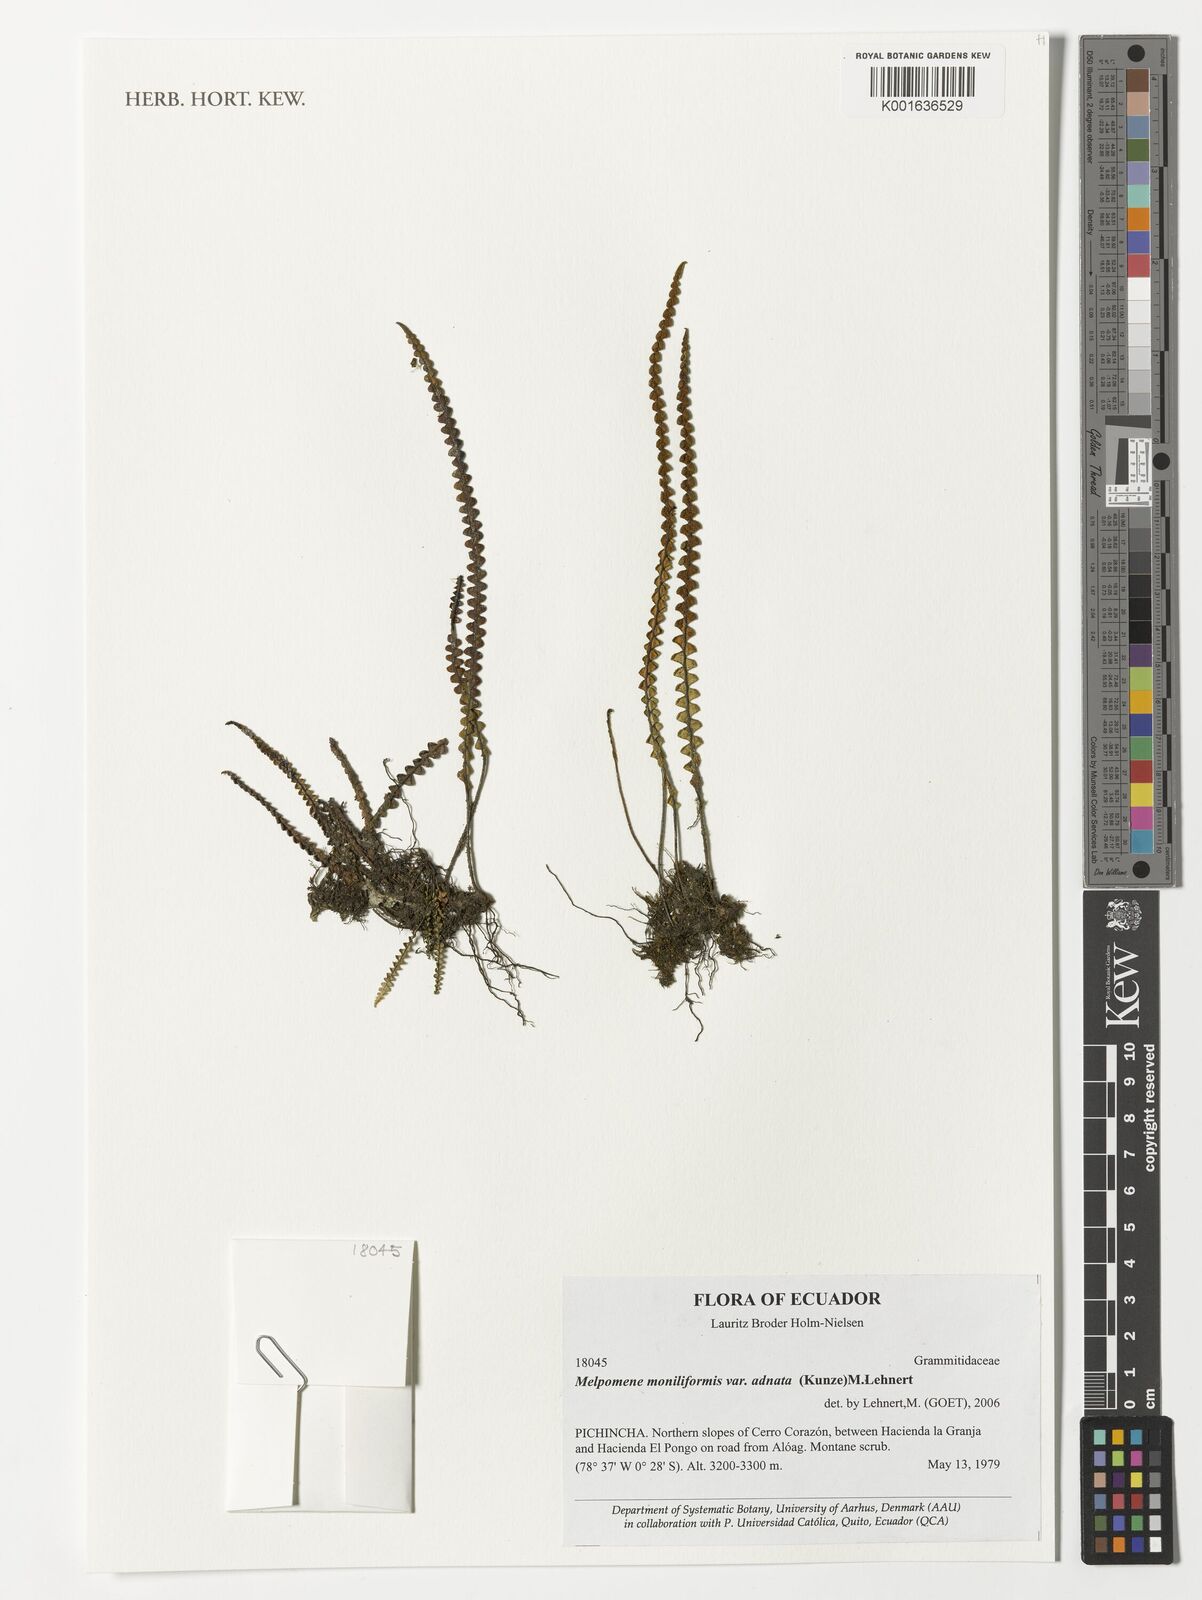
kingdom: Plantae
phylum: Tracheophyta
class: Polypodiopsida
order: Polypodiales
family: Polypodiaceae
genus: Melpomene
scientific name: Melpomene moniliformis
